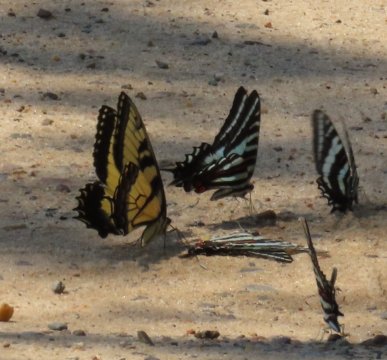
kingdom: Animalia
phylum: Arthropoda
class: Insecta
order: Lepidoptera
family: Papilionidae
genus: Pterourus
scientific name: Pterourus glaucus
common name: Eastern Tiger Swallowtail
